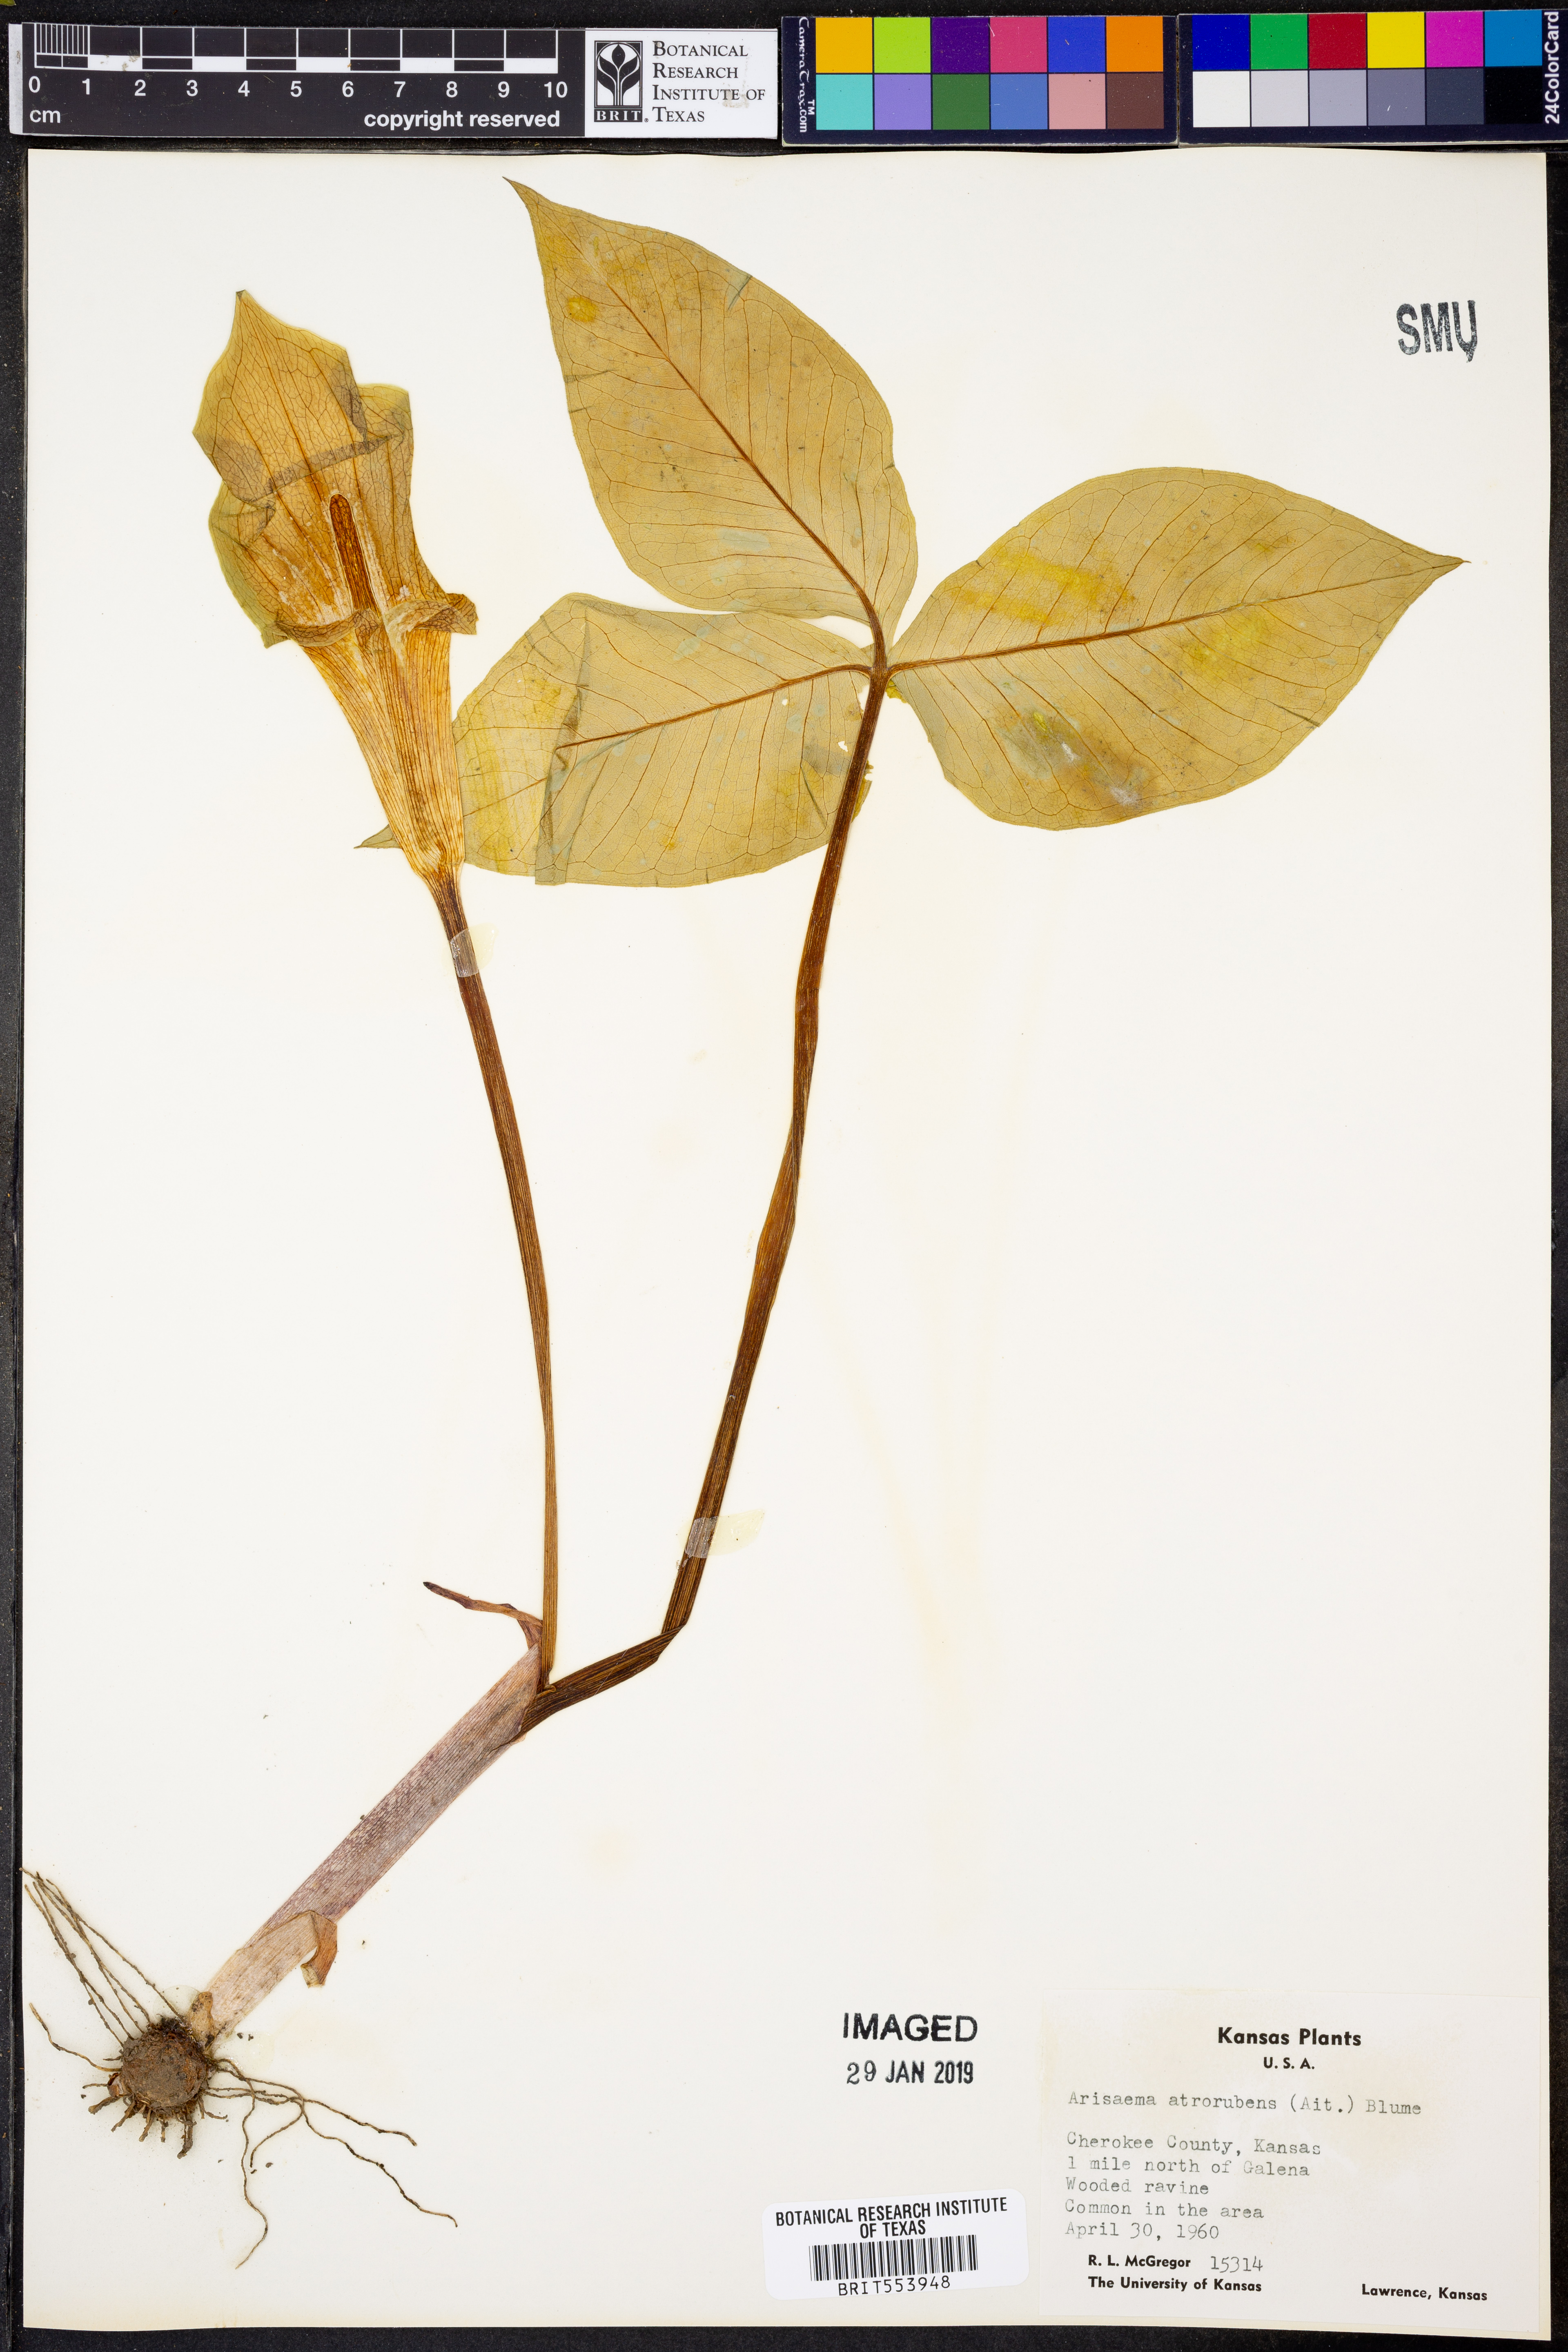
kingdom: Plantae
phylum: Tracheophyta
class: Liliopsida
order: Alismatales
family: Araceae
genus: Arisaema
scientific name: Arisaema triphyllum
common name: Jack-in-the-pulpit
